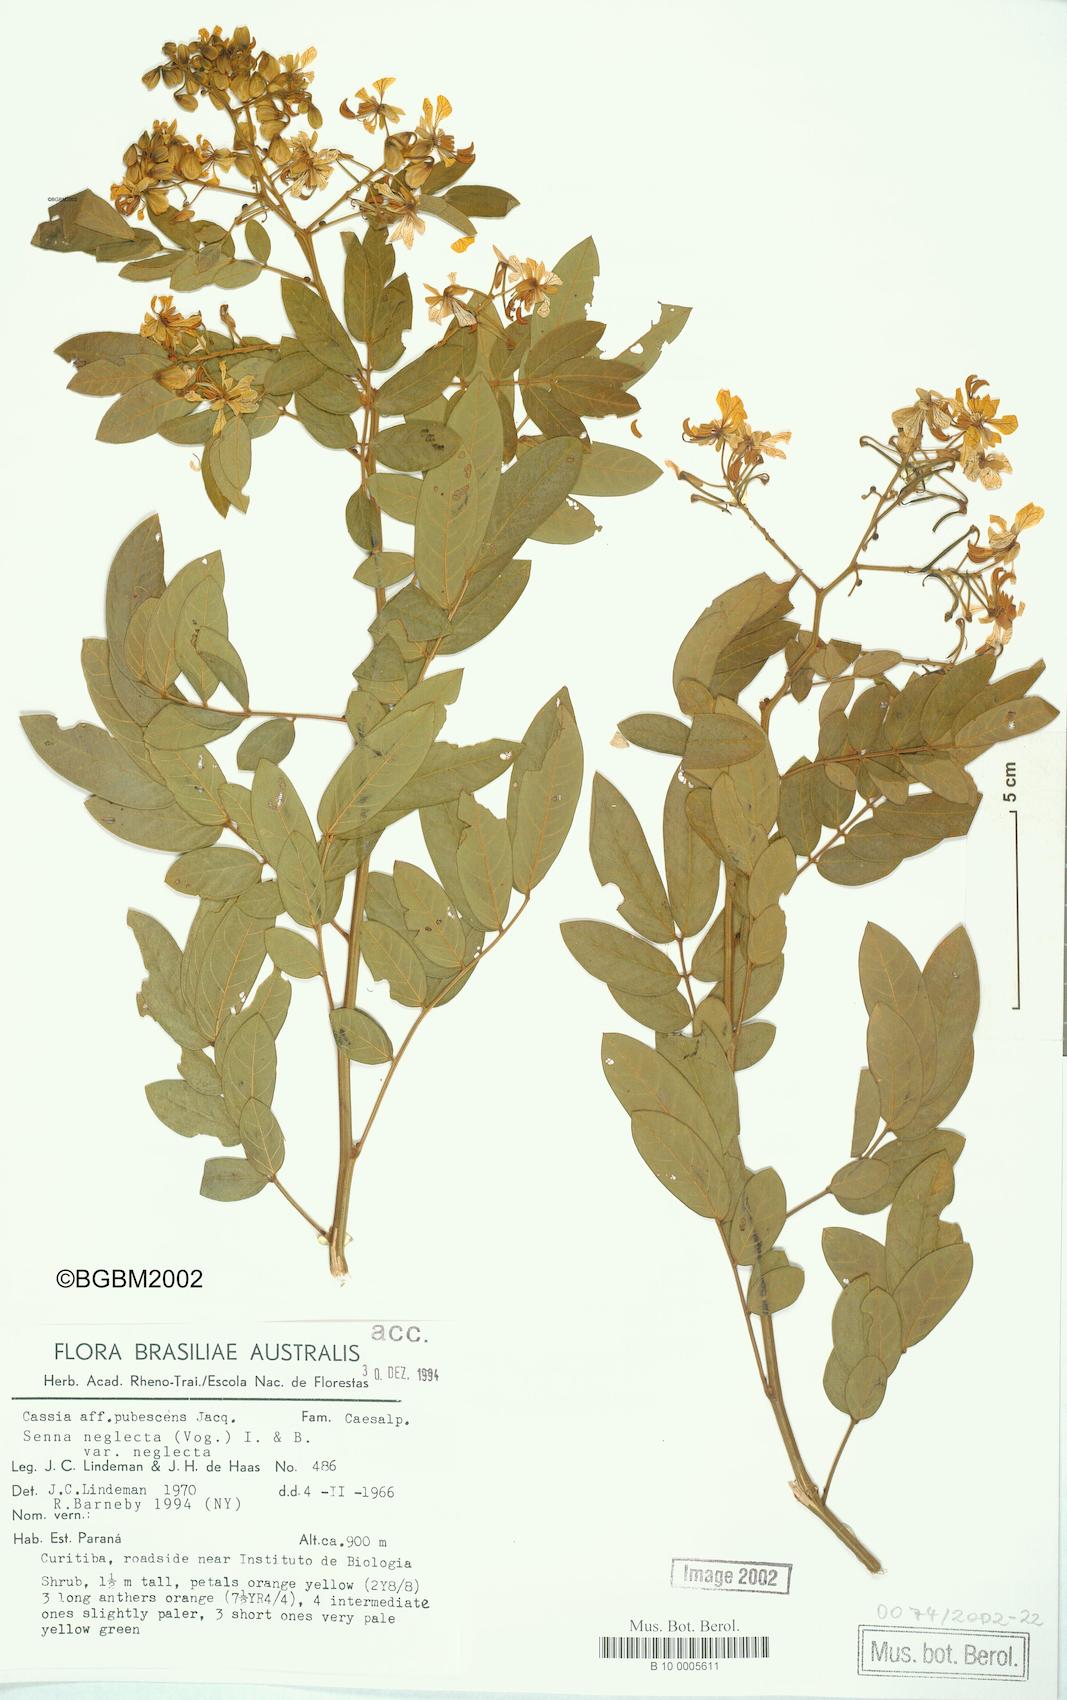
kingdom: Plantae
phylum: Tracheophyta
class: Magnoliopsida
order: Fabales
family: Fabaceae
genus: Senna
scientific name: Senna neglecta
